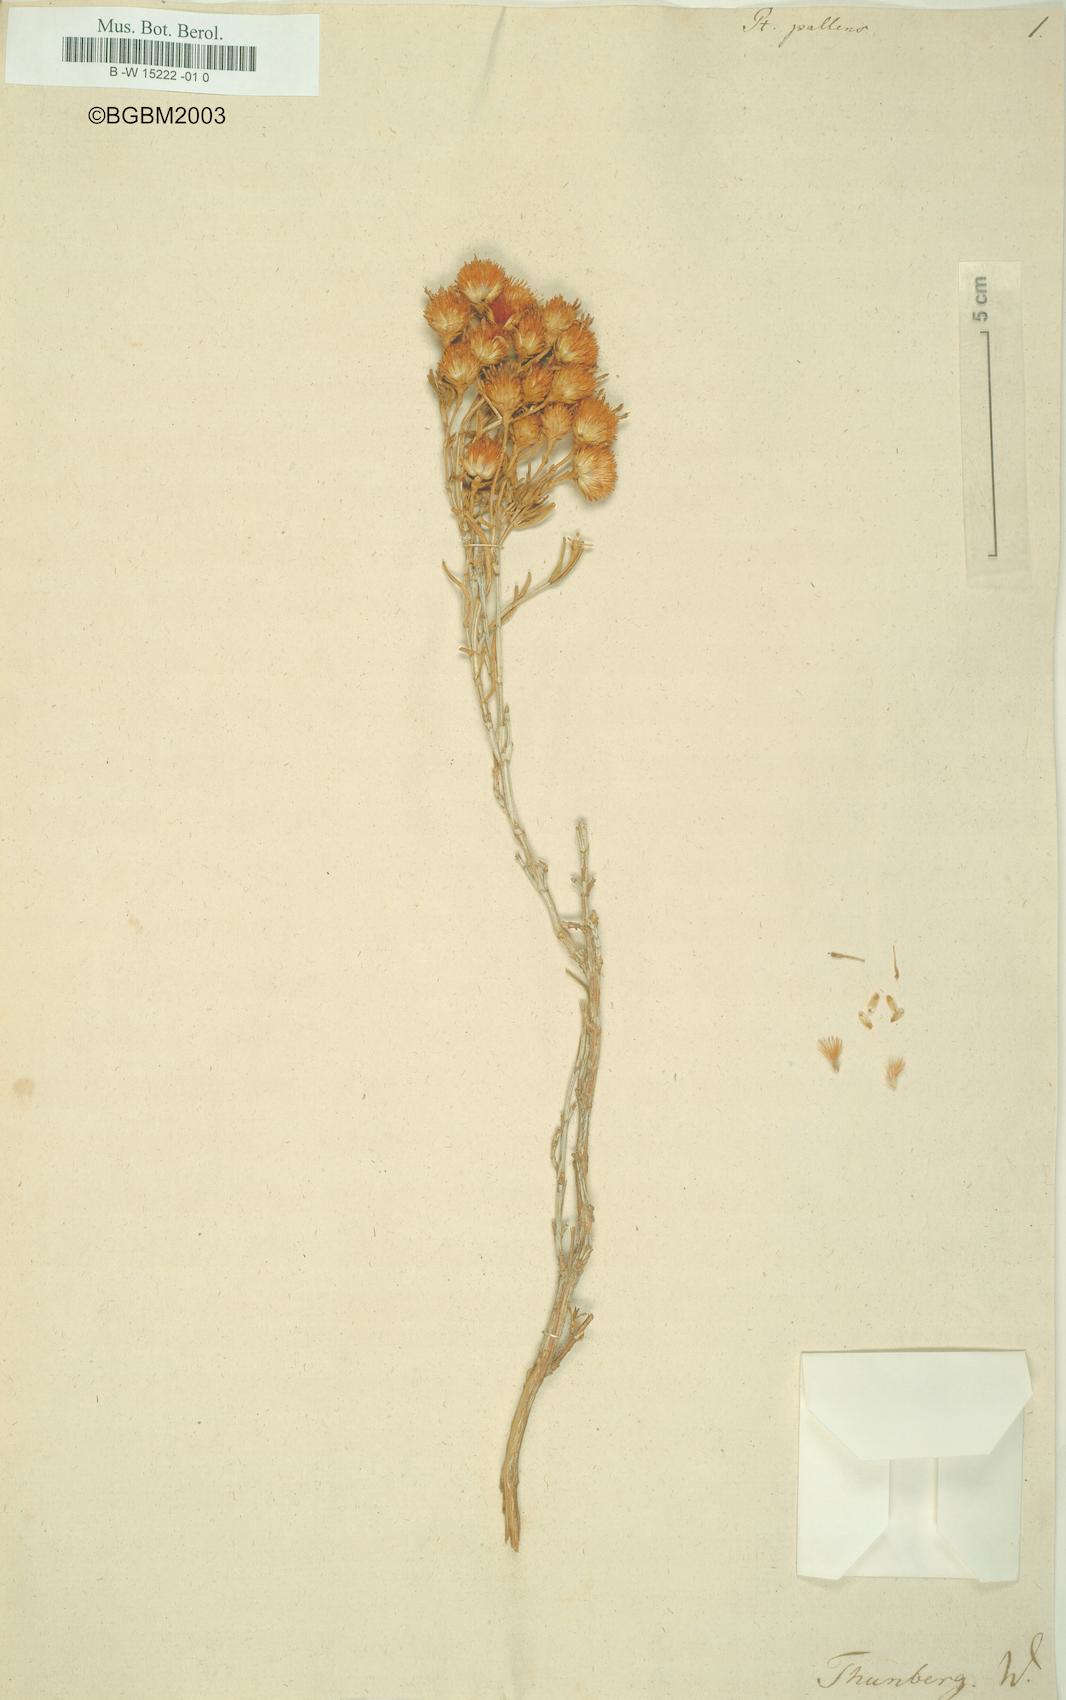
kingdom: Plantae
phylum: Tracheophyta
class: Magnoliopsida
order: Asterales
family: Asteraceae
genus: Pteronia
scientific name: Pteronia pallens
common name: Scholtzbush
